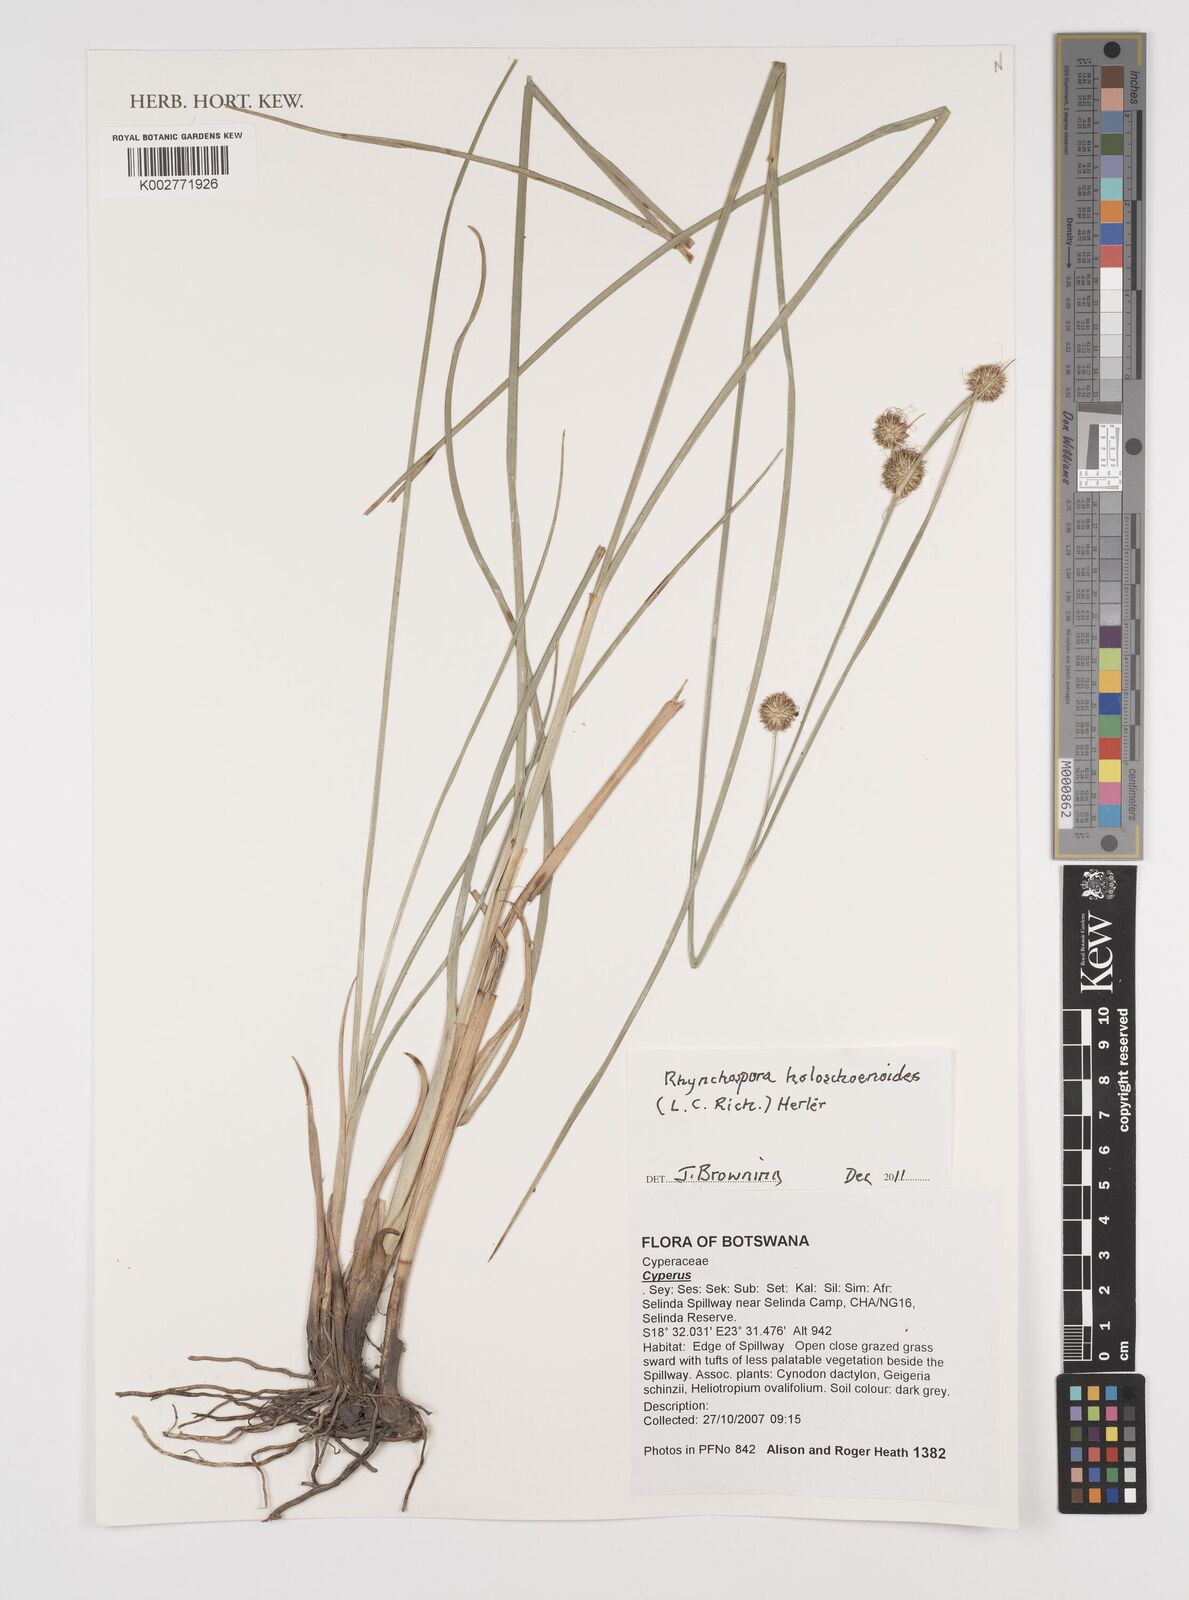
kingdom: Plantae
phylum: Tracheophyta
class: Liliopsida
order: Poales
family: Cyperaceae
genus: Rhynchospora
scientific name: Rhynchospora holoschoenoides
